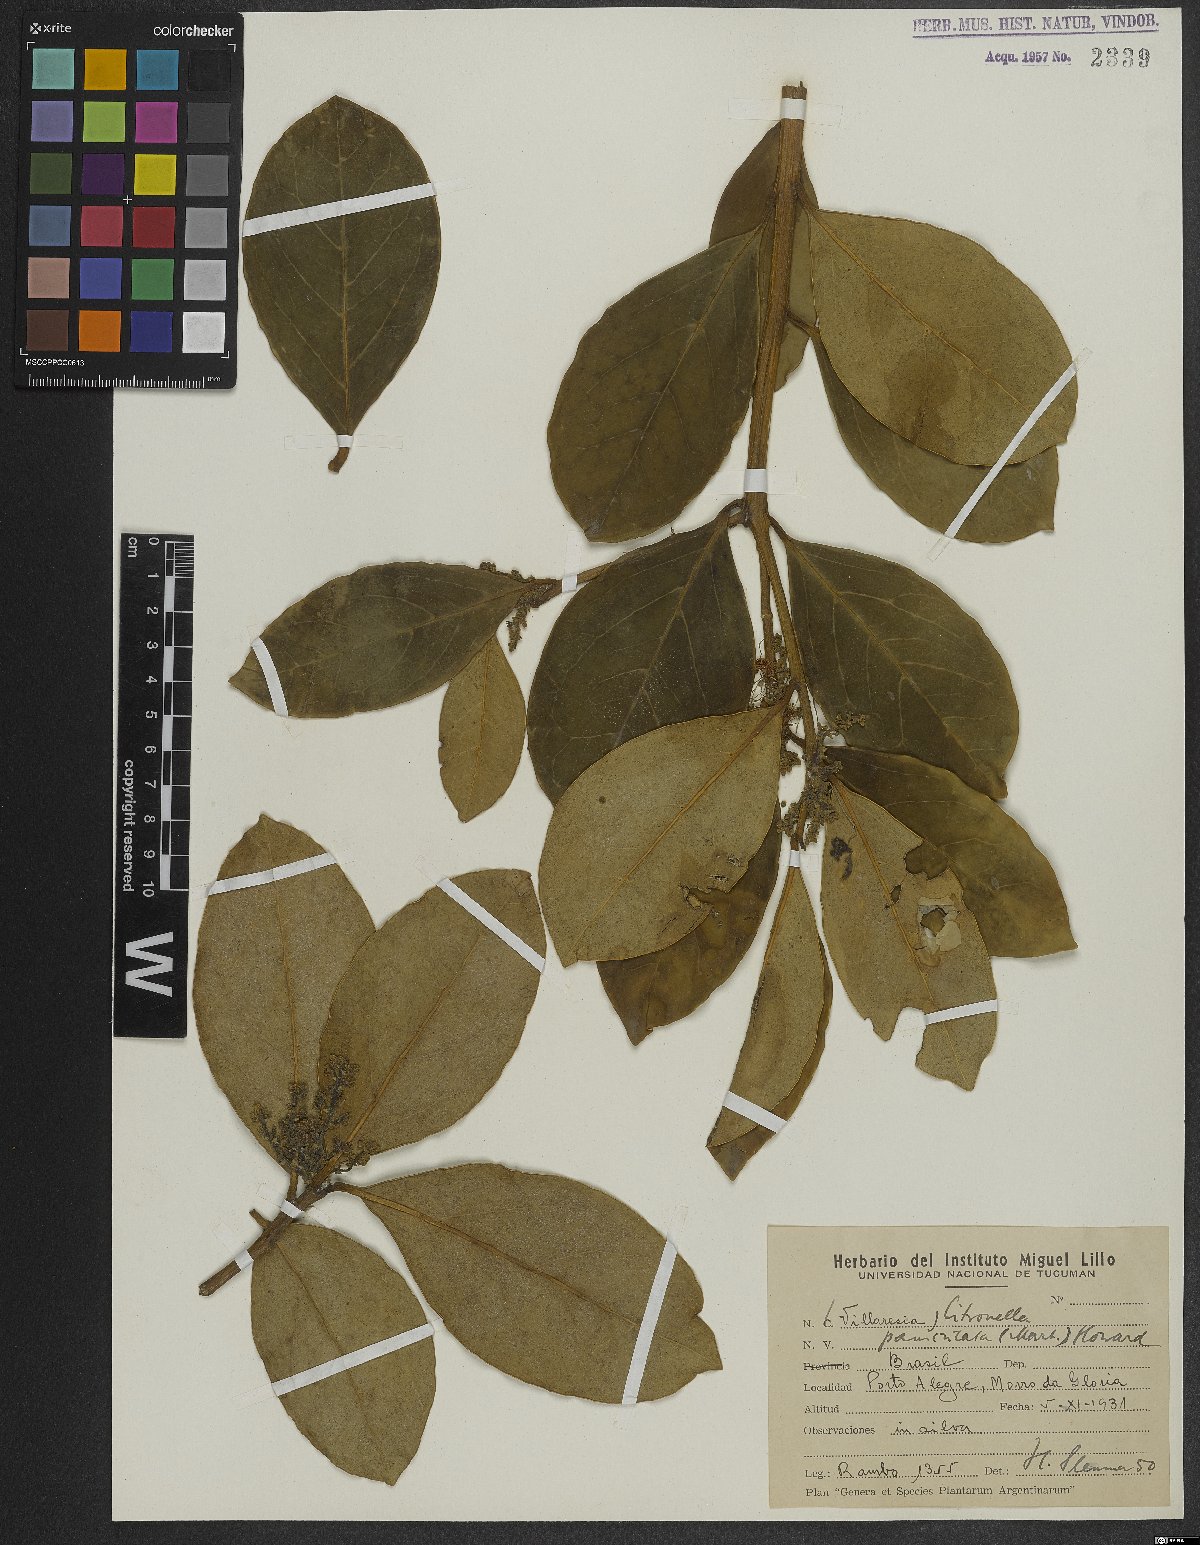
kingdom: Plantae
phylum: Tracheophyta
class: Magnoliopsida
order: Cardiopteridales
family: Cardiopteridaceae
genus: Citronella
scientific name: Citronella paniculata
